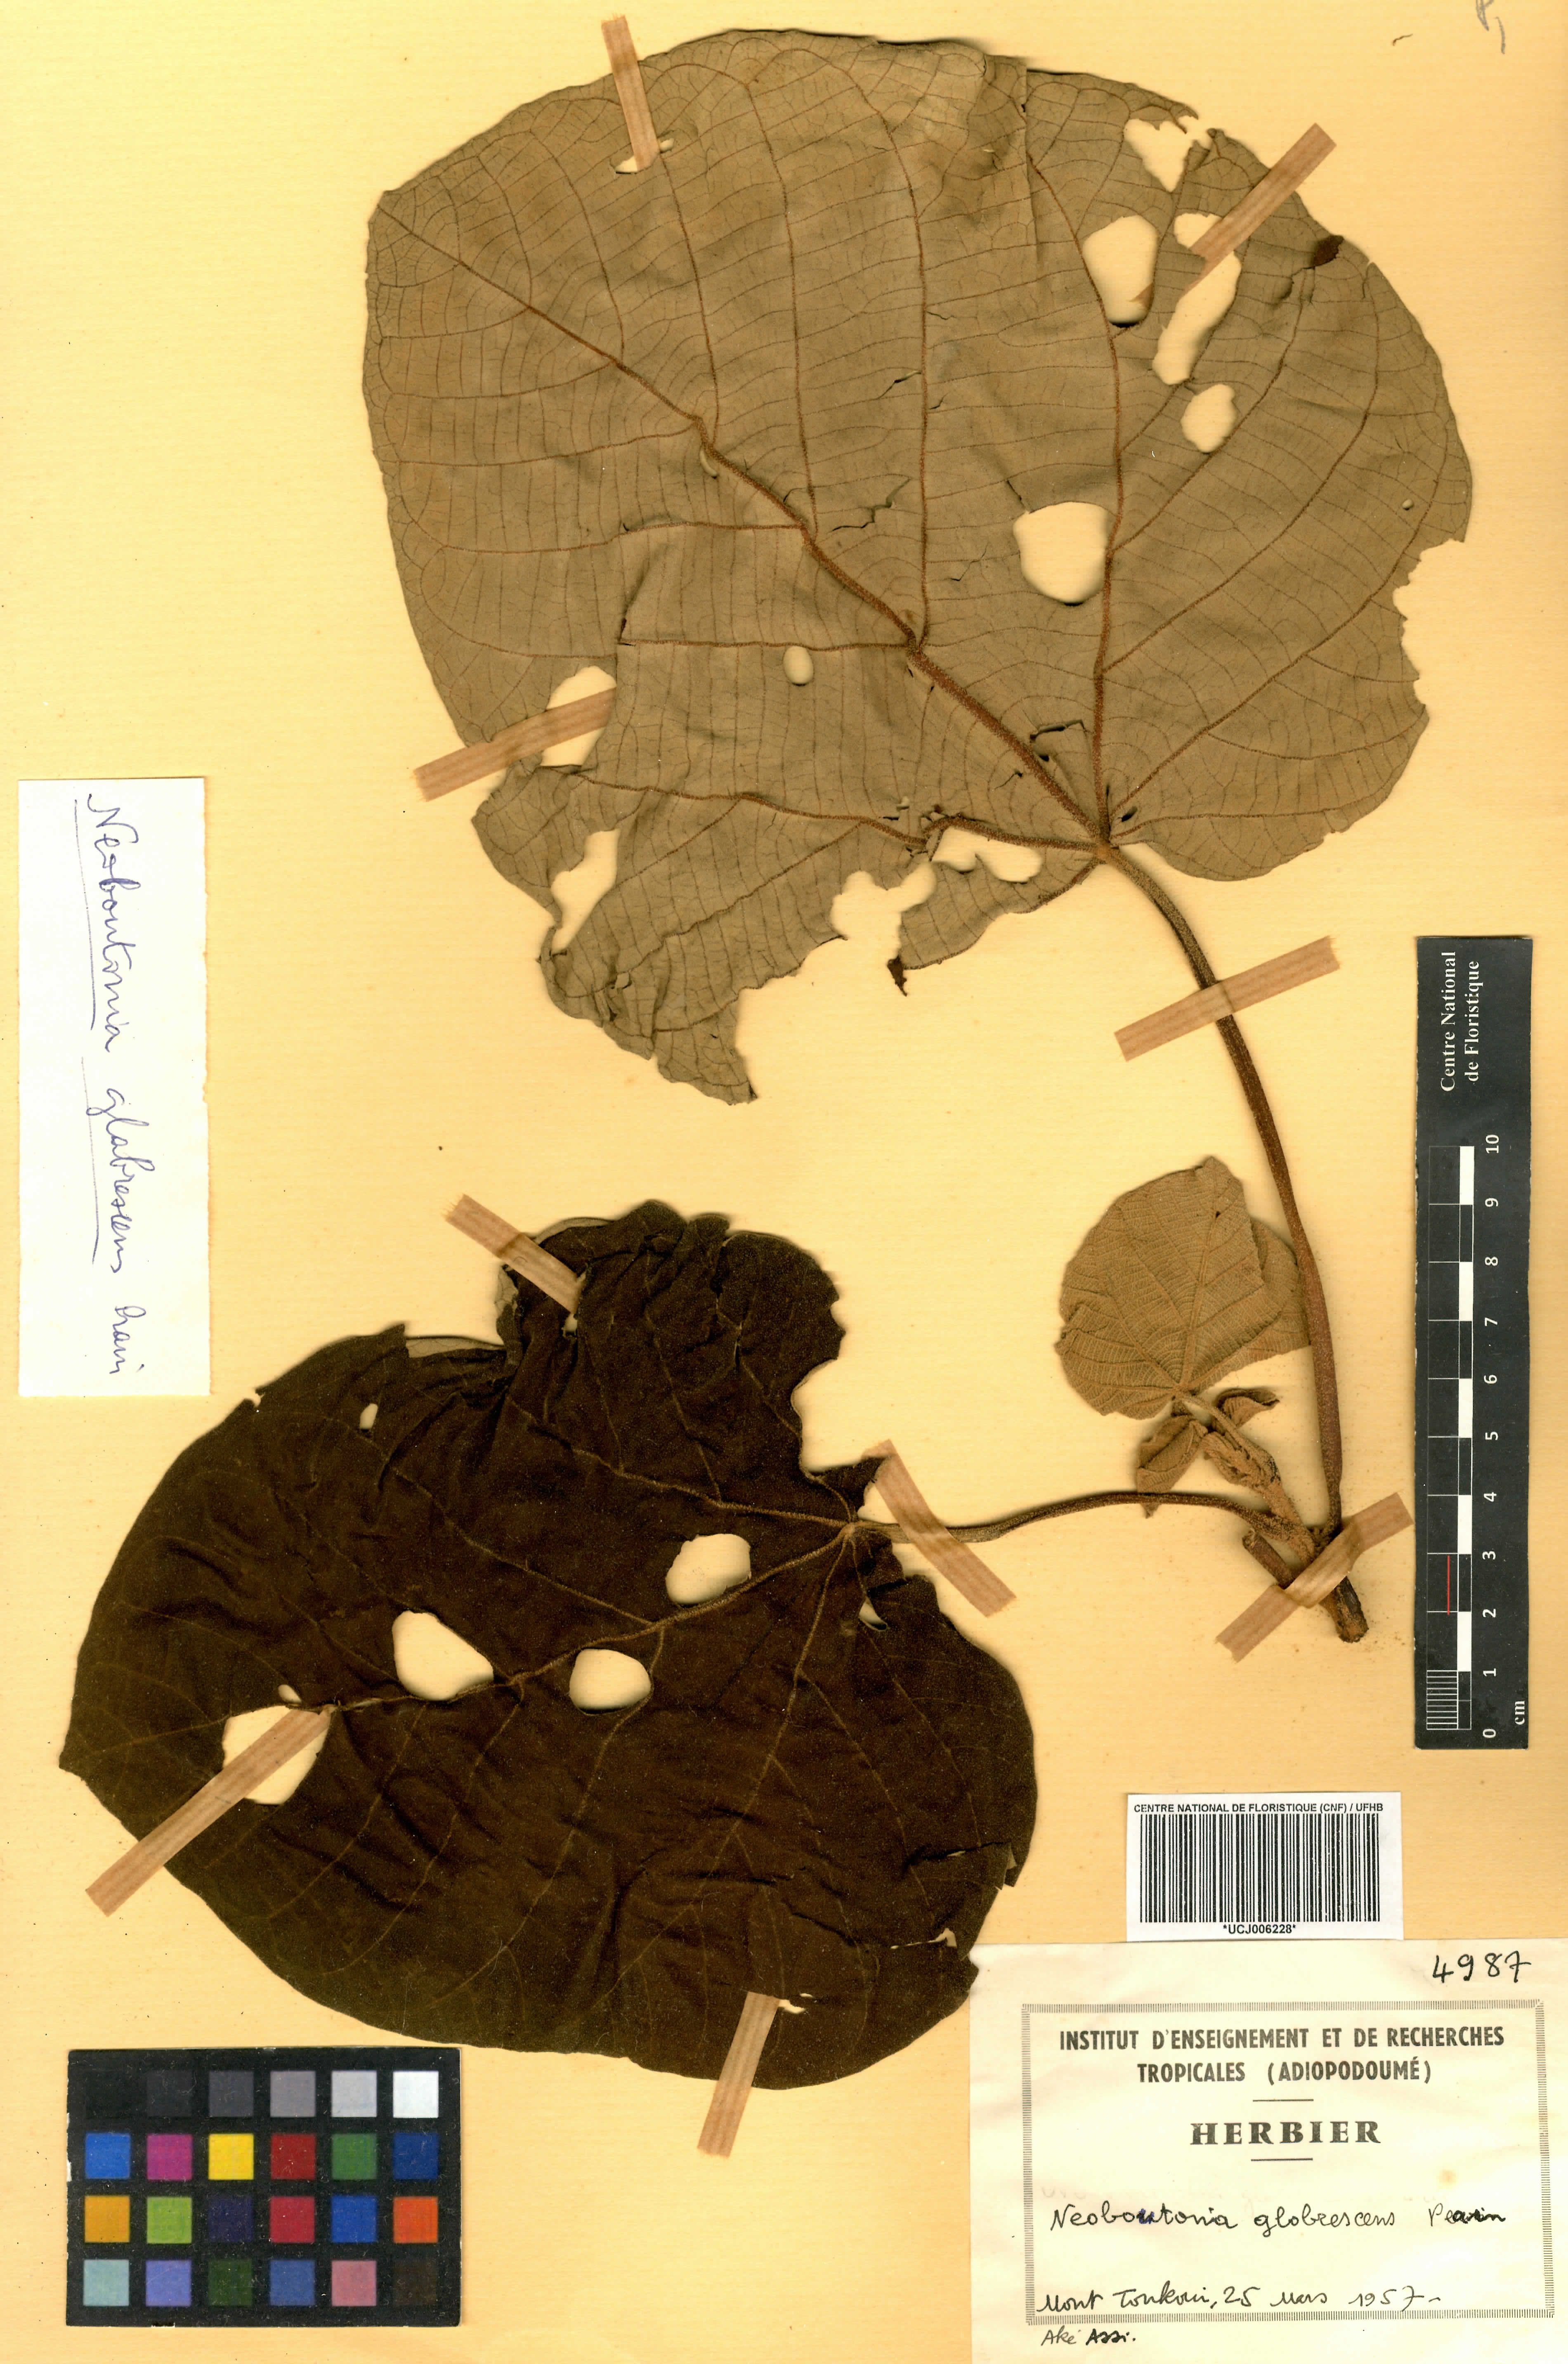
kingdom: Plantae
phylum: Tracheophyta
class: Magnoliopsida
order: Malpighiales
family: Euphorbiaceae
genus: Neoboutonia
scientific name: Neoboutonia mannii
